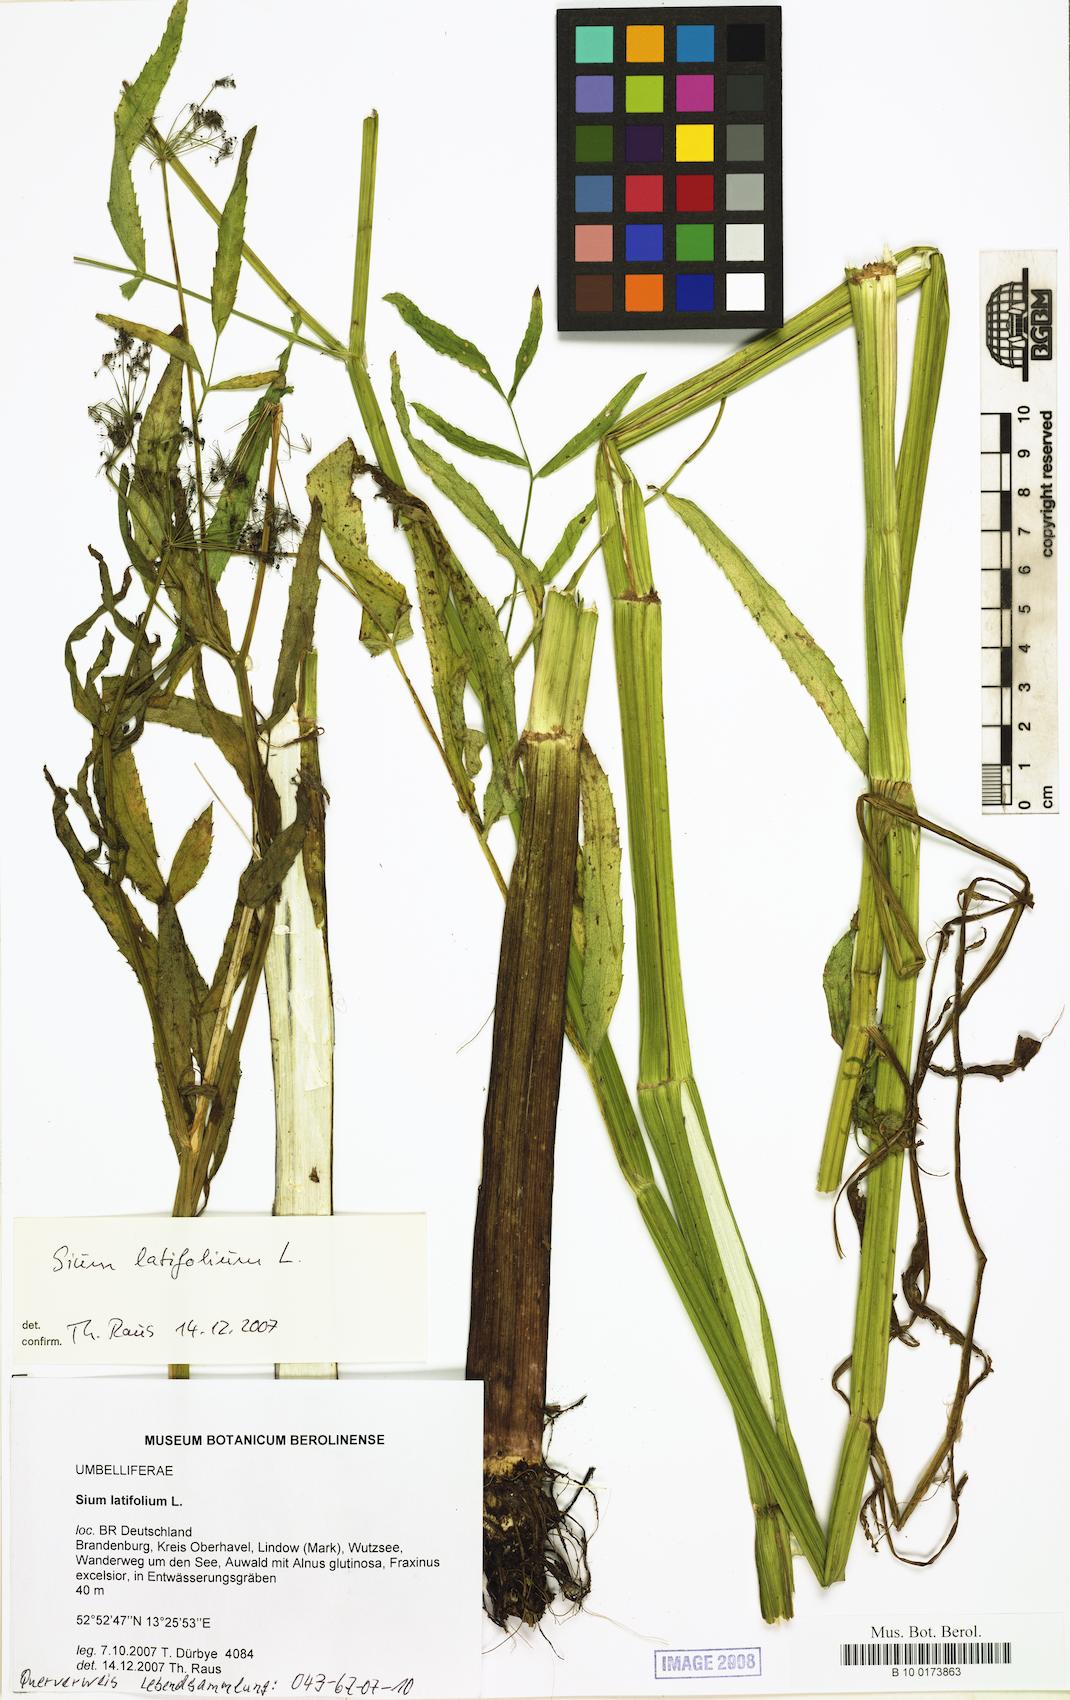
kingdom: Plantae
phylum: Tracheophyta
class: Magnoliopsida
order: Apiales
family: Apiaceae
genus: Sium
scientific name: Sium latifolium
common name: Greater water-parsnip
